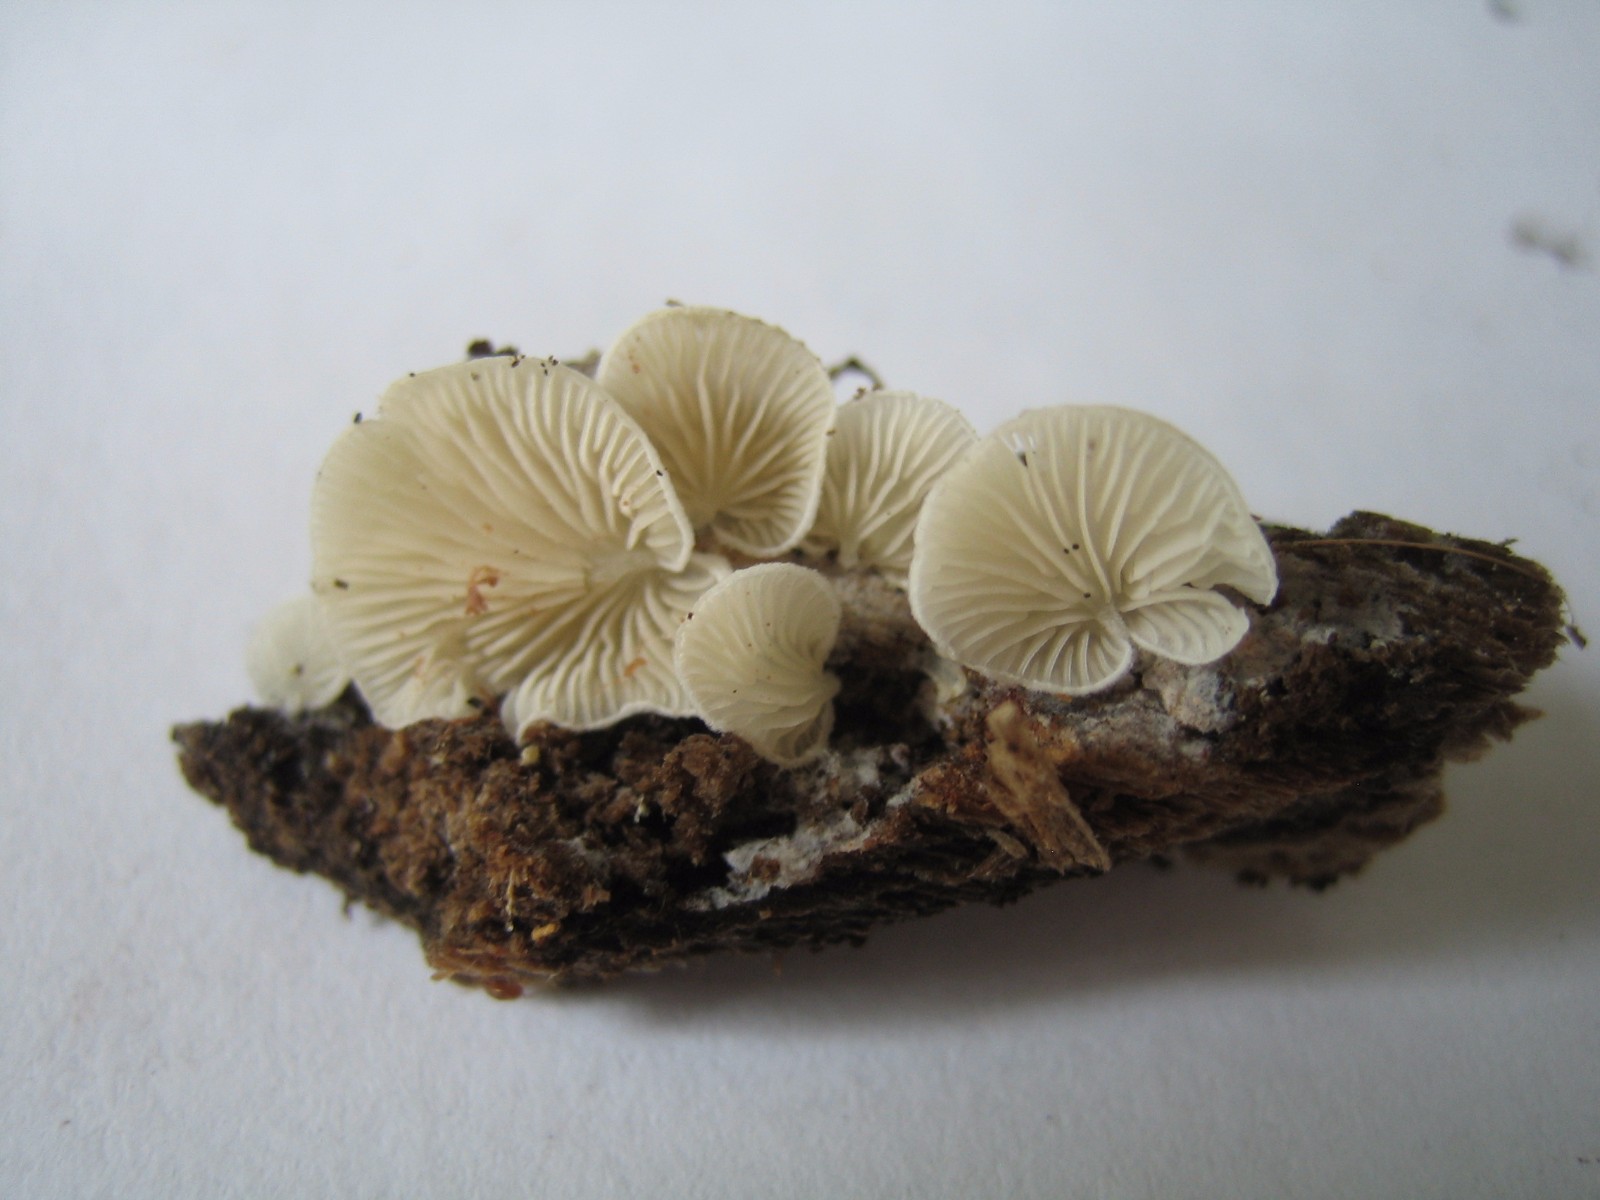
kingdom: Fungi
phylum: Basidiomycota
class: Agaricomycetes
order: Agaricales
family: Crepidotaceae
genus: Crepidotus
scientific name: Crepidotus
